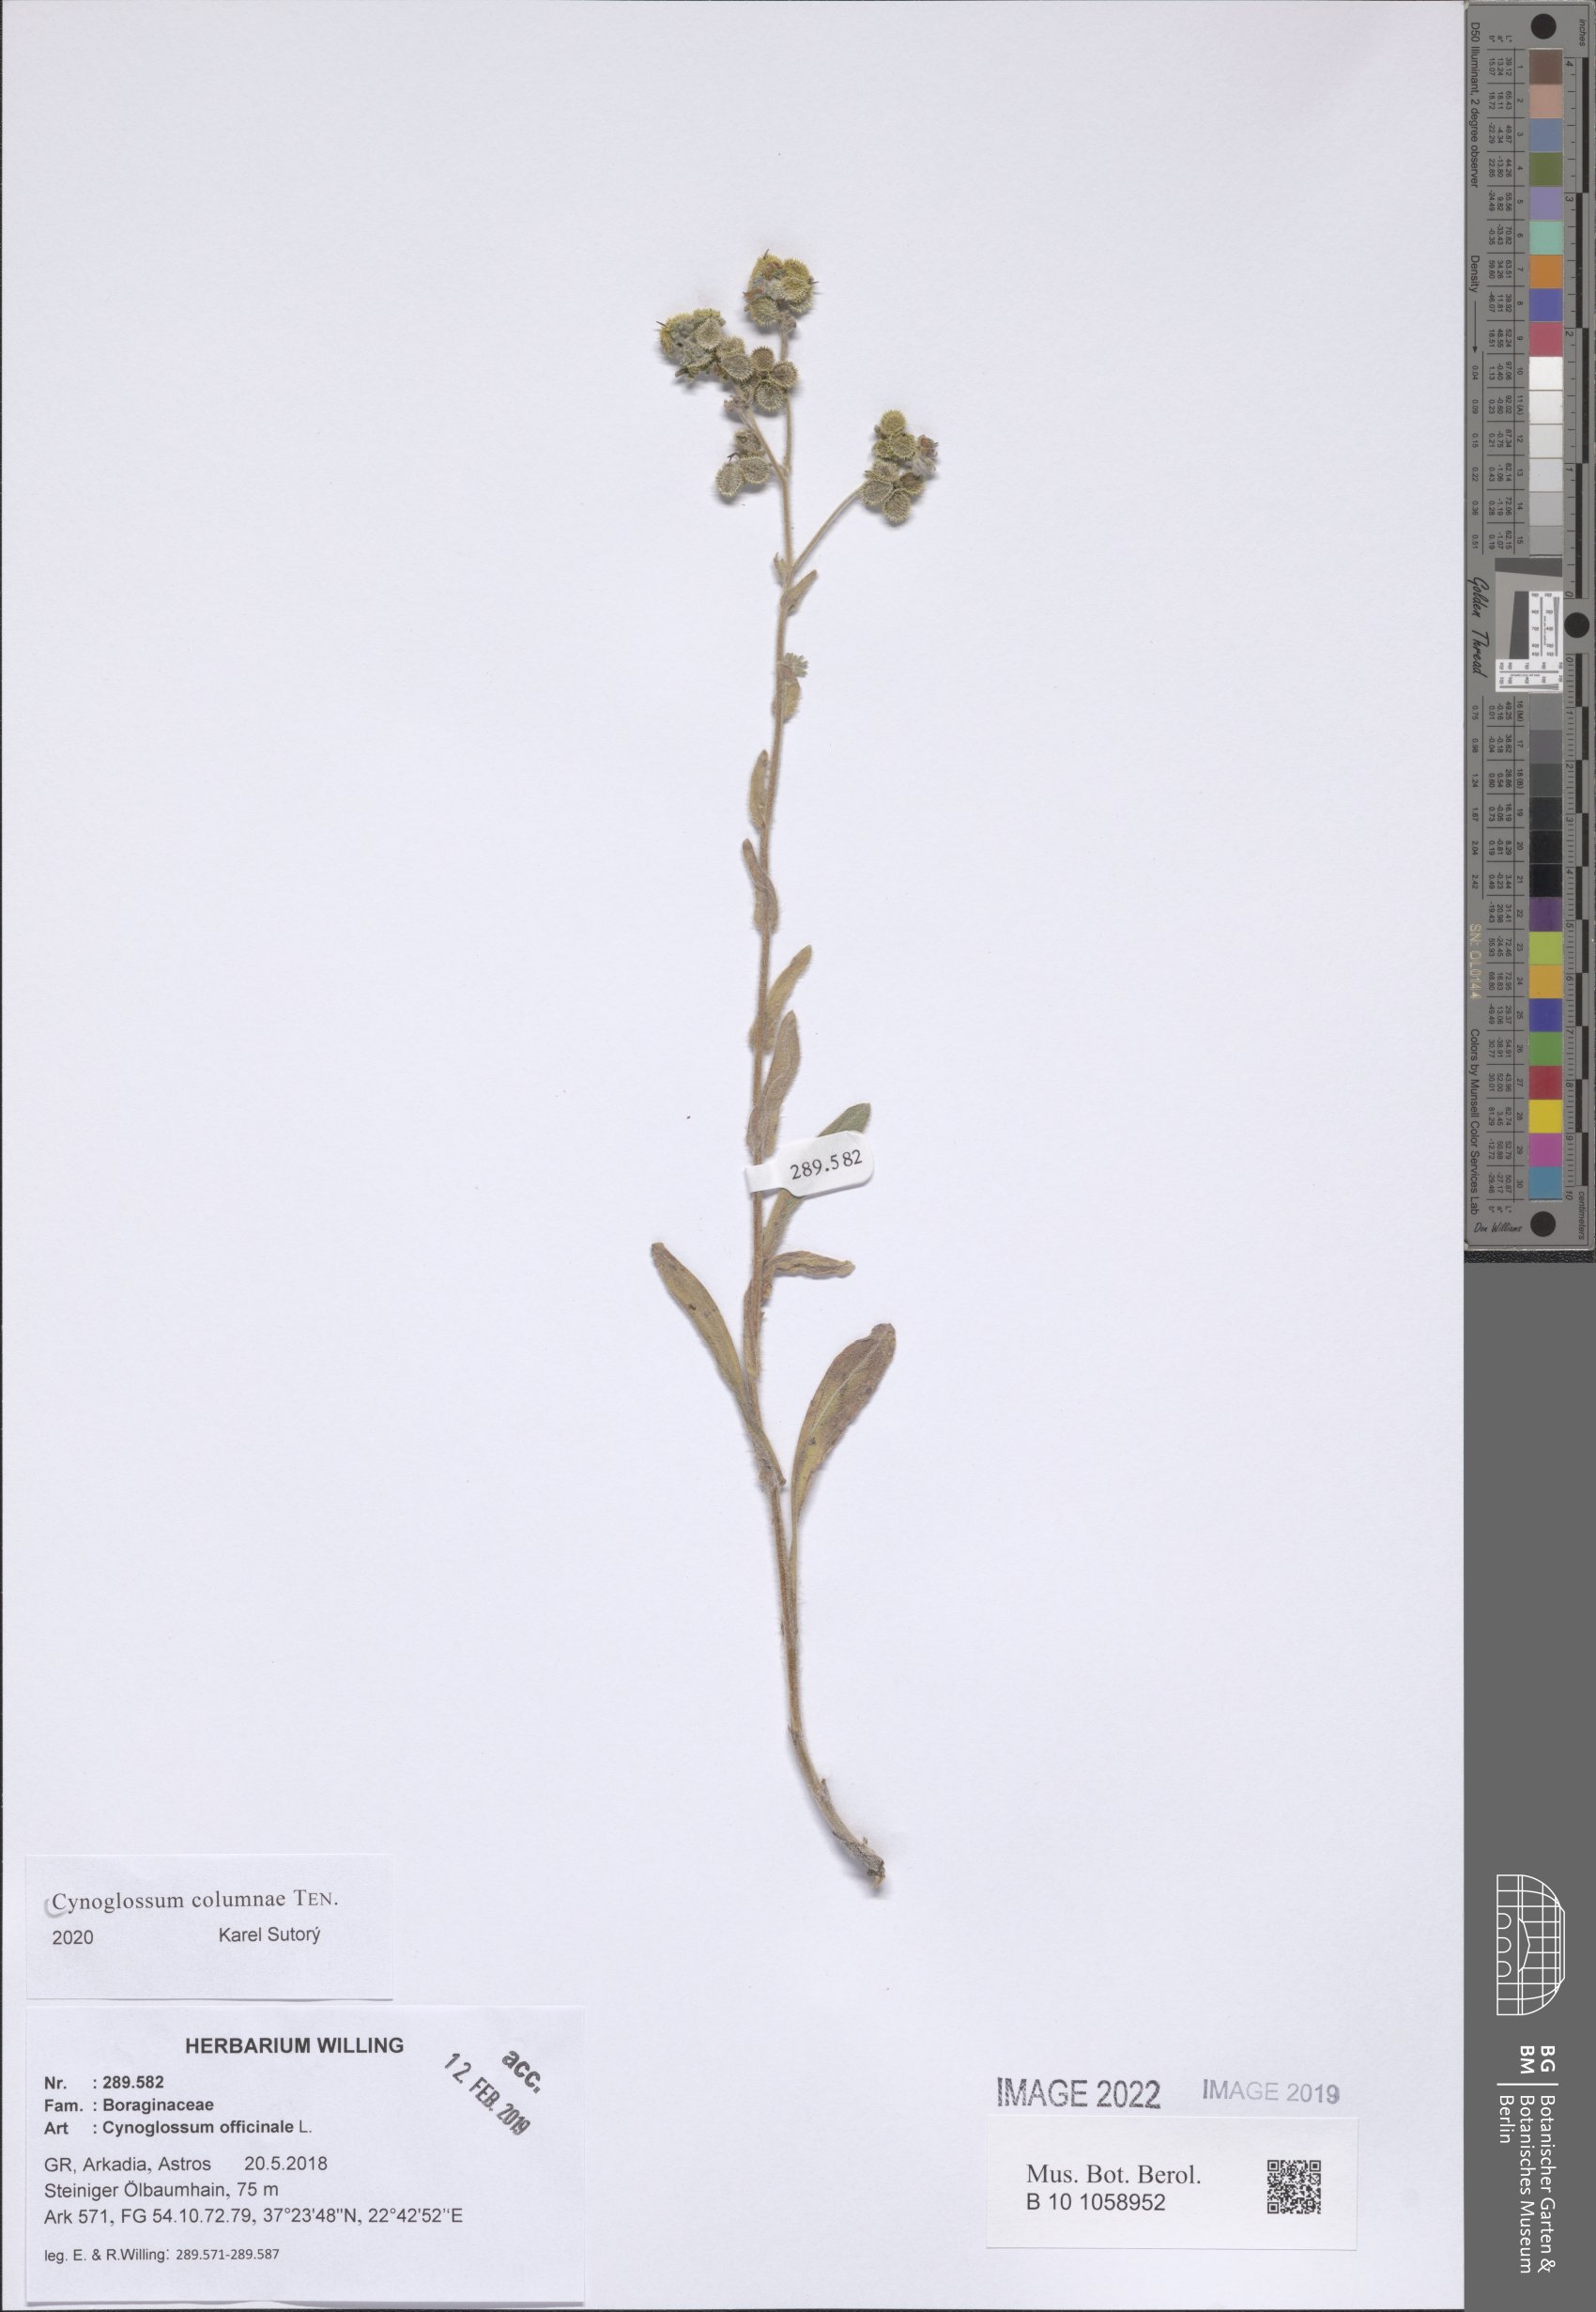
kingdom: Plantae
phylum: Tracheophyta
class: Magnoliopsida
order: Boraginales
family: Boraginaceae
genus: Rindera
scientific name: Rindera columnae
